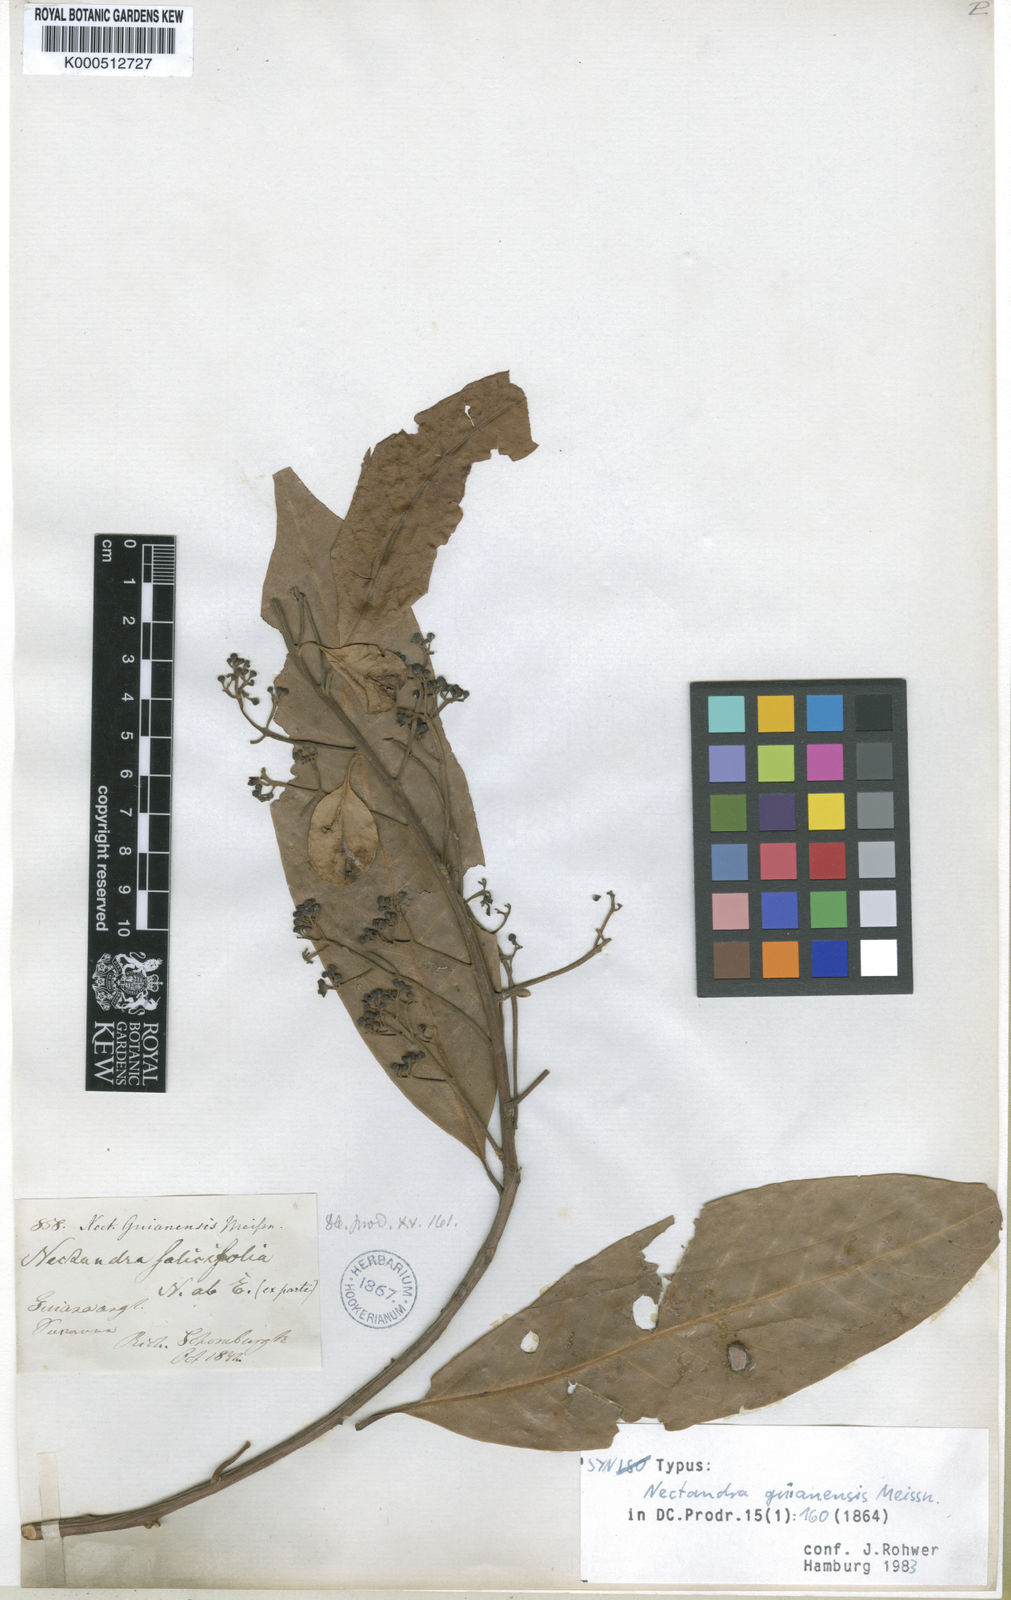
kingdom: Plantae
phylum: Tracheophyta
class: Magnoliopsida
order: Laurales
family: Lauraceae
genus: Nectandra
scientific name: Nectandra sanguinea
